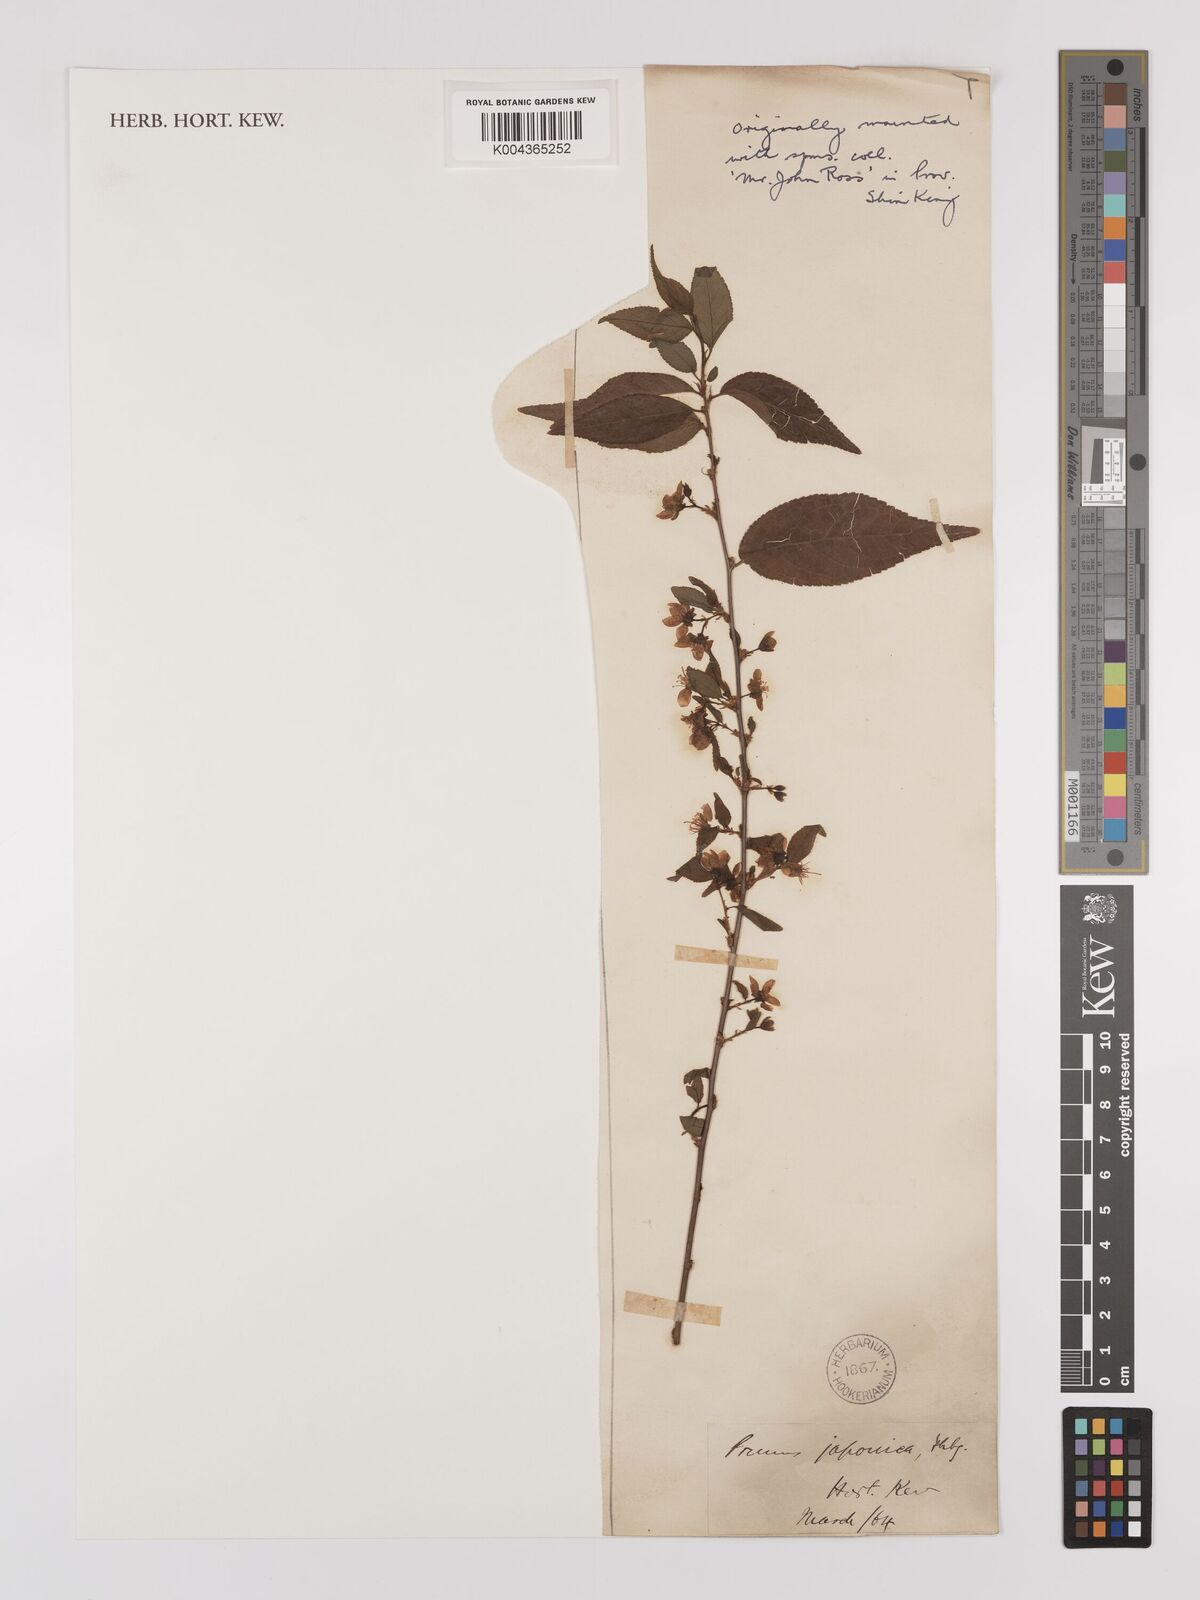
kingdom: Plantae
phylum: Tracheophyta
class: Magnoliopsida
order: Rosales
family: Rosaceae
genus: Prunus
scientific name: Prunus japonica
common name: Chinese bush cherry
